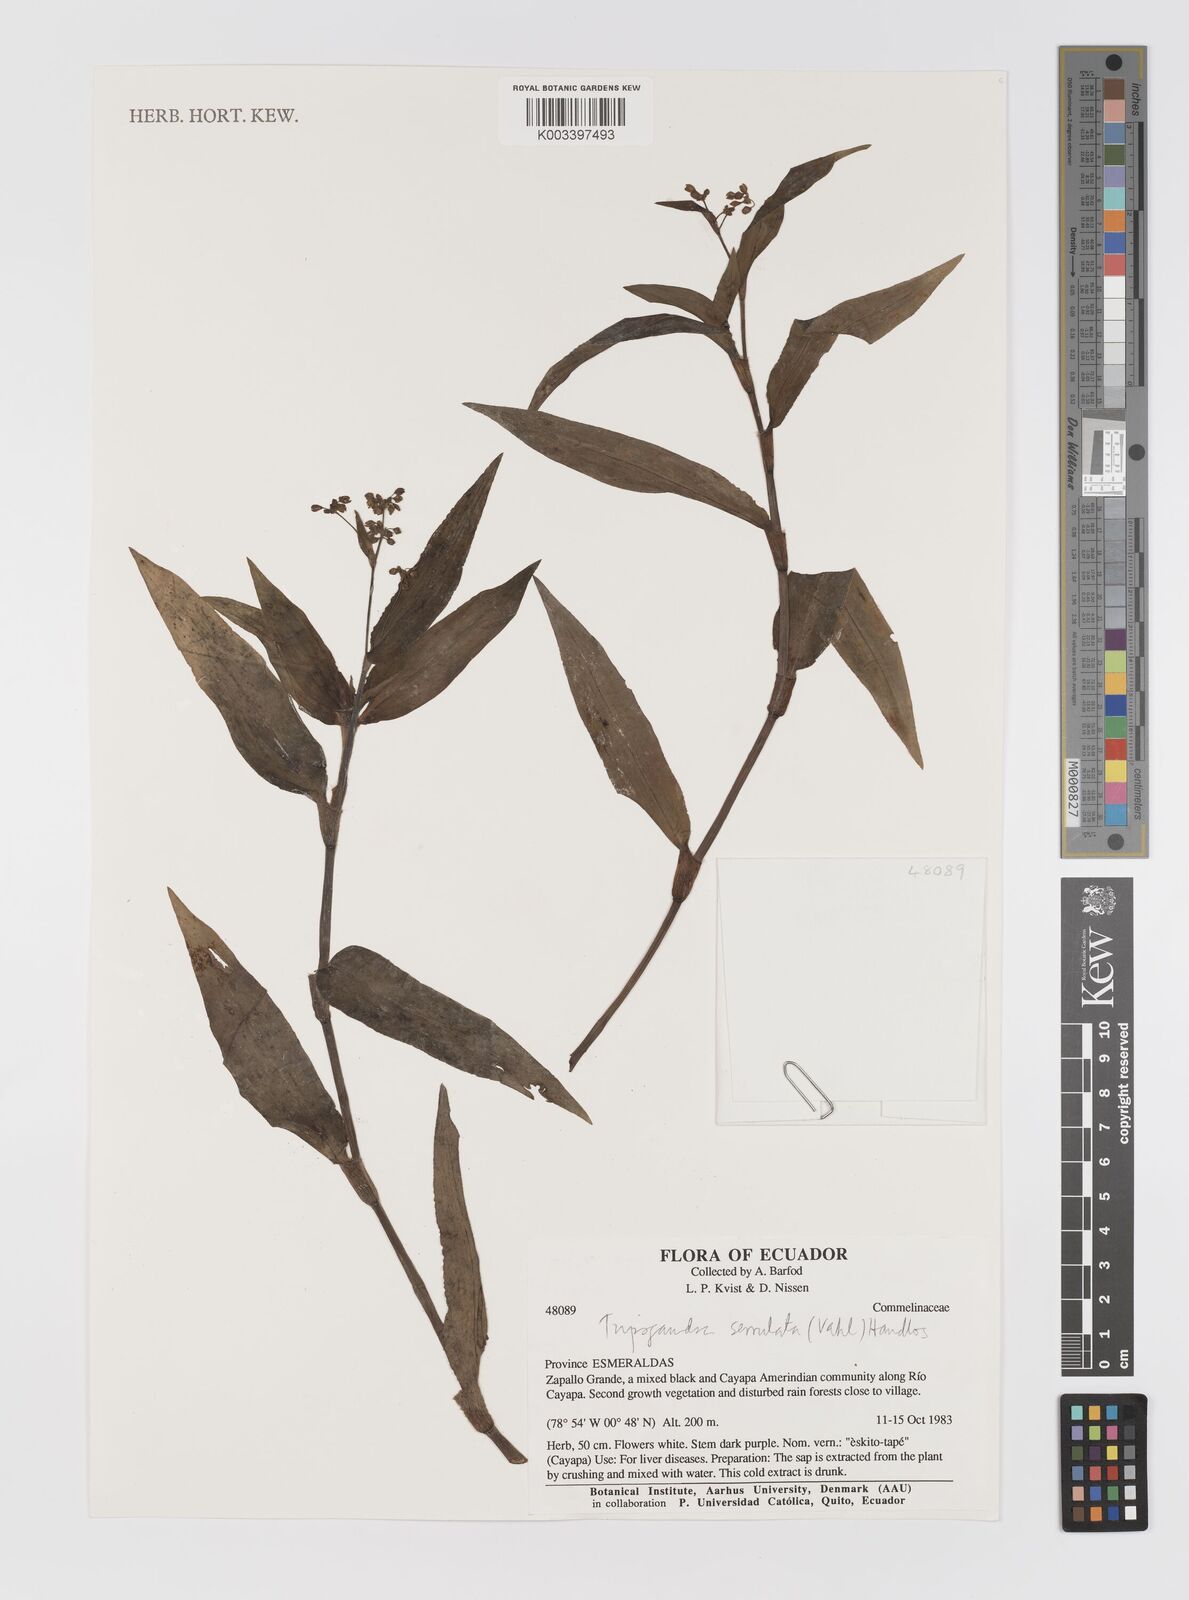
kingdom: Plantae
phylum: Tracheophyta
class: Liliopsida
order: Commelinales
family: Commelinaceae
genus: Callisia
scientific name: Callisia serrulata
